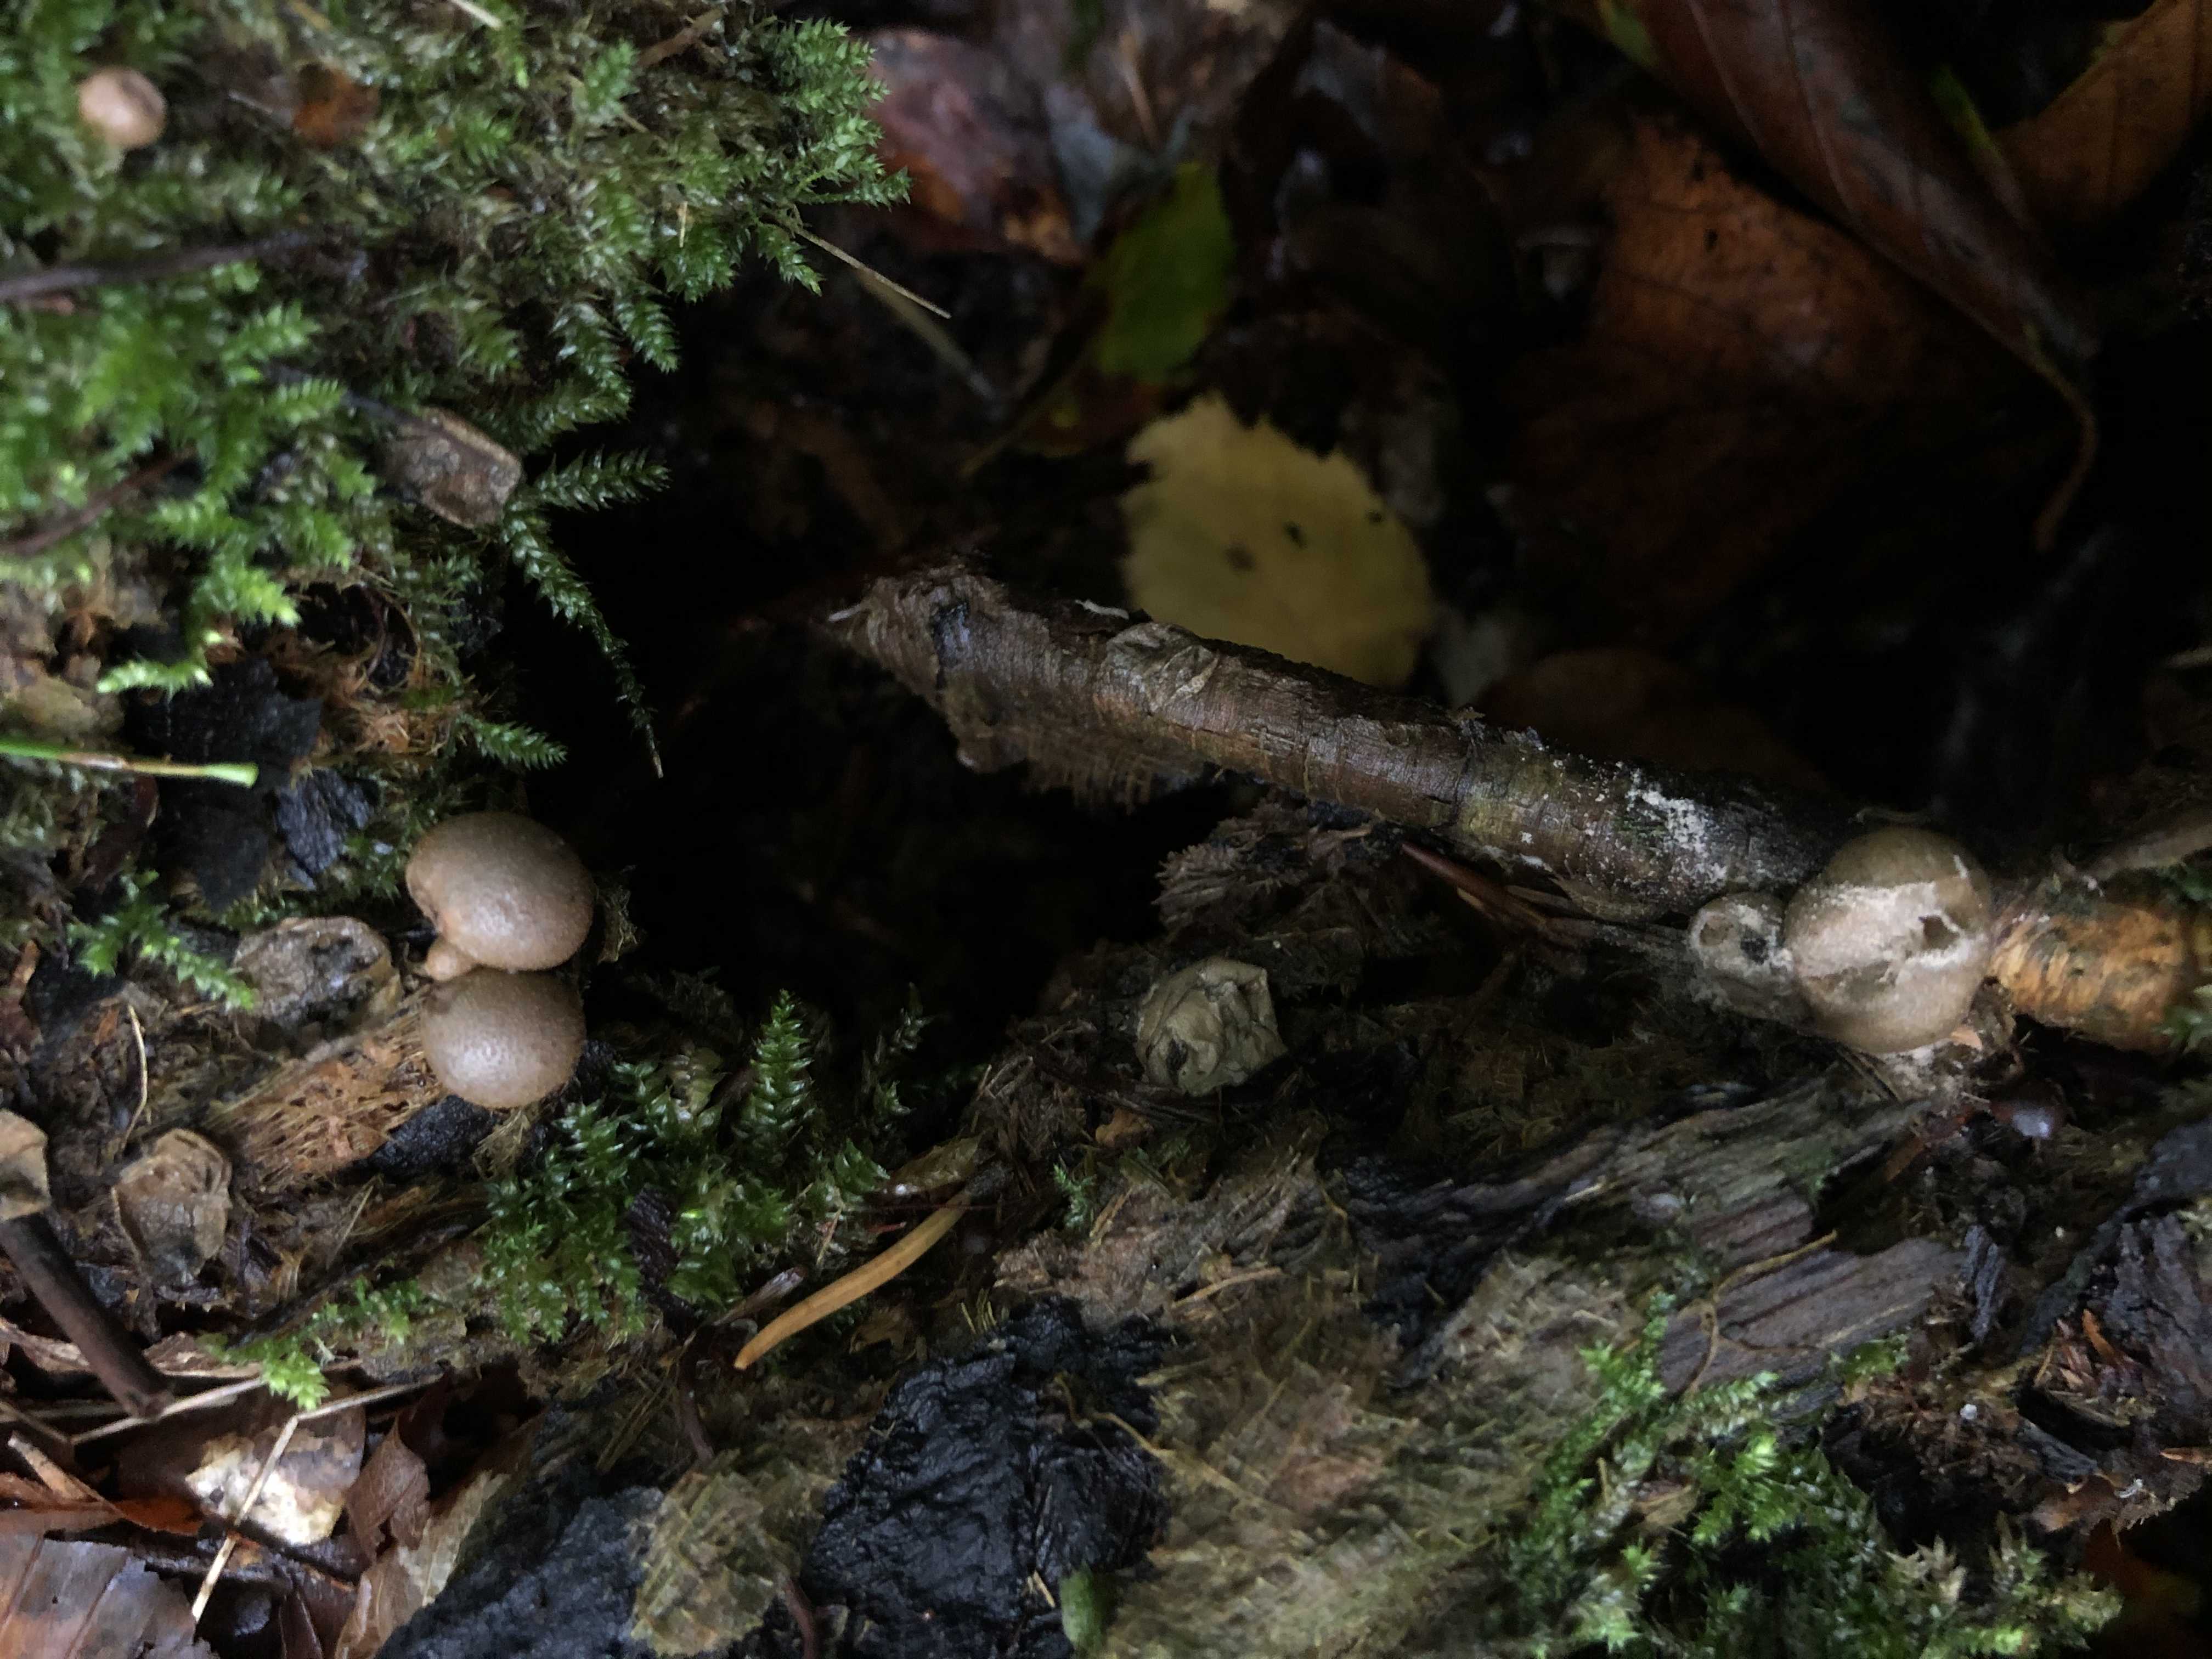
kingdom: Protozoa
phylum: Mycetozoa
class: Myxomycetes
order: Cribrariales
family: Tubiferaceae
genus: Lycogala
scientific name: Lycogala epidendrum
